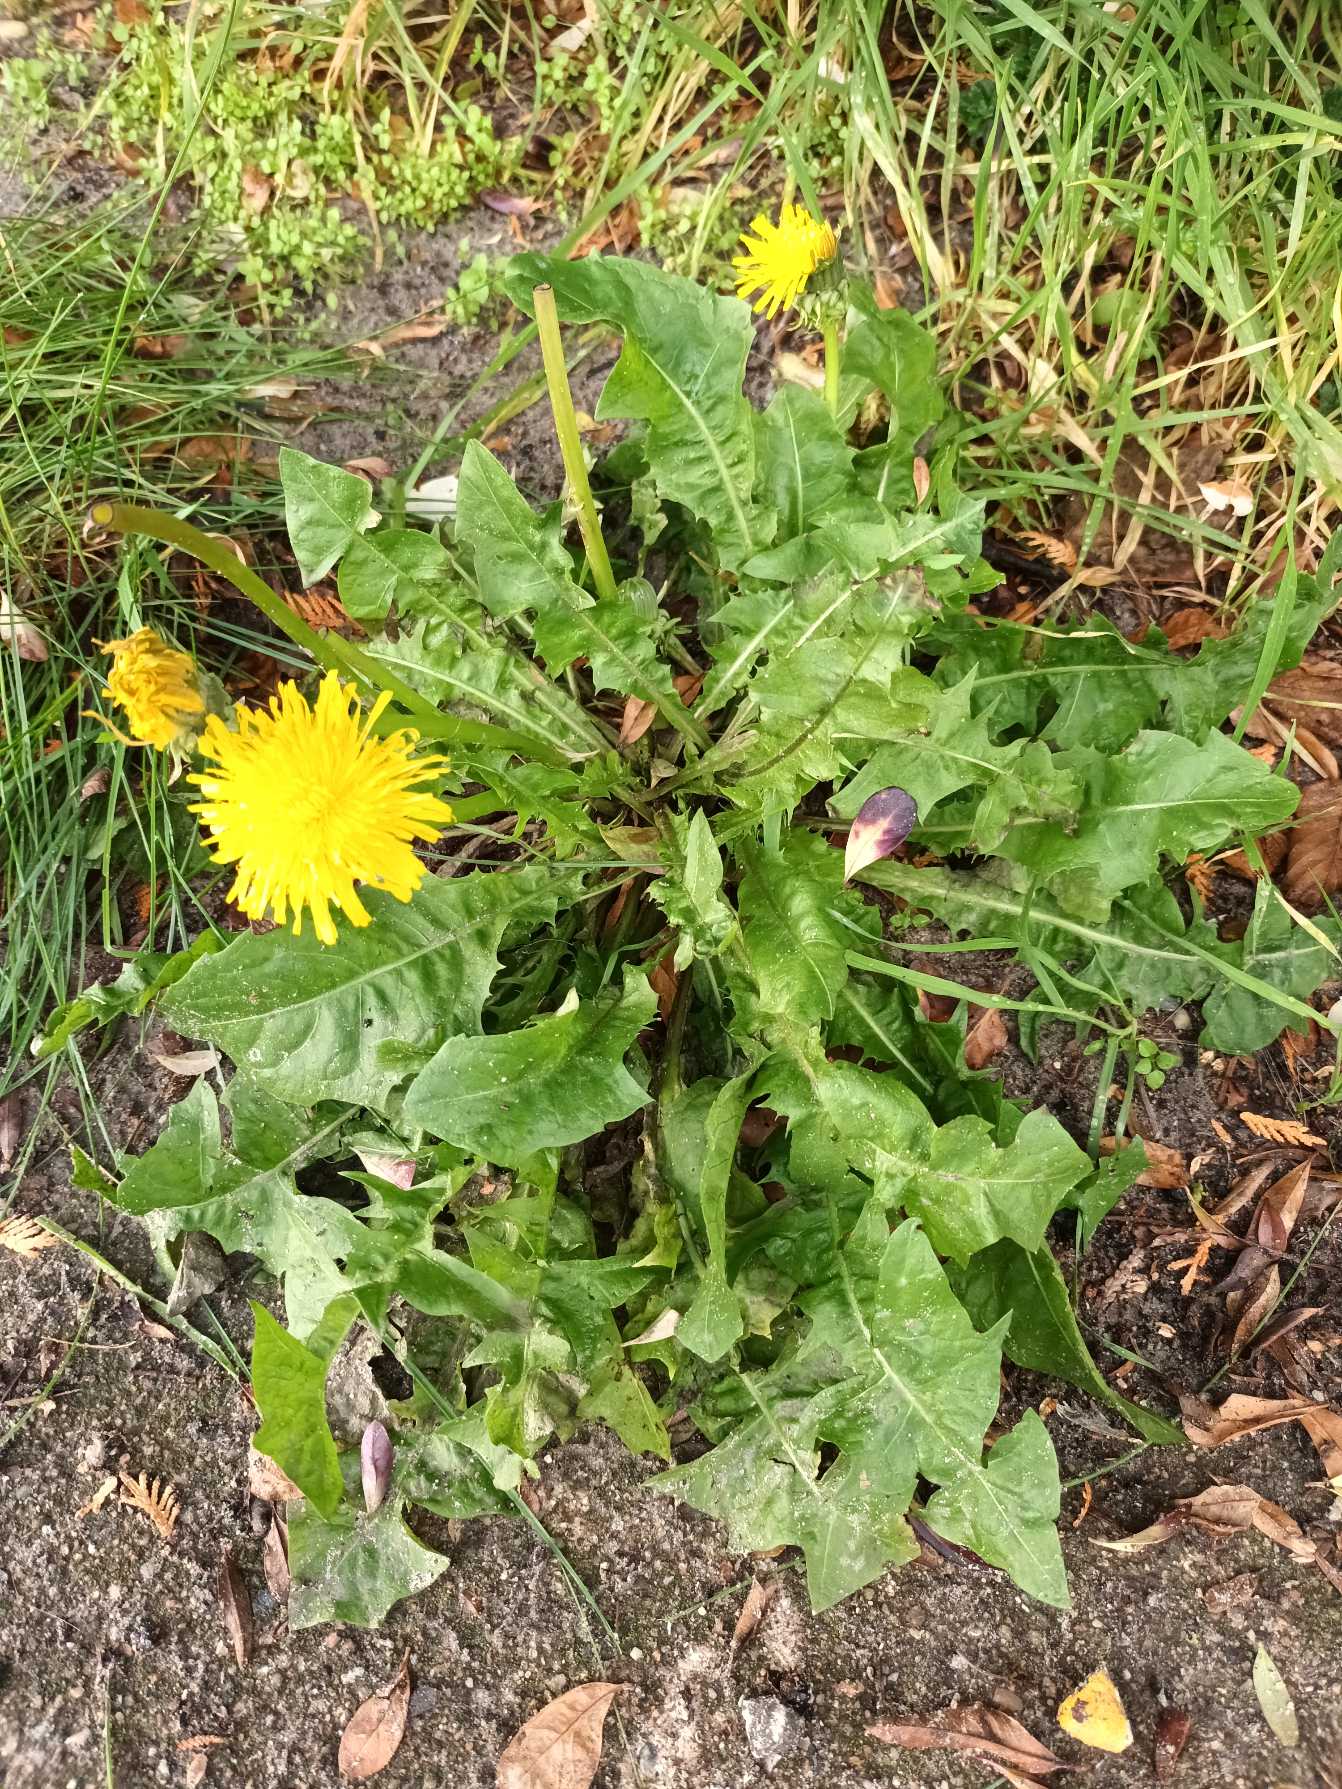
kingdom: Plantae
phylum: Tracheophyta
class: Magnoliopsida
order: Asterales
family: Asteraceae
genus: Taraxacum
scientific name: Taraxacum
